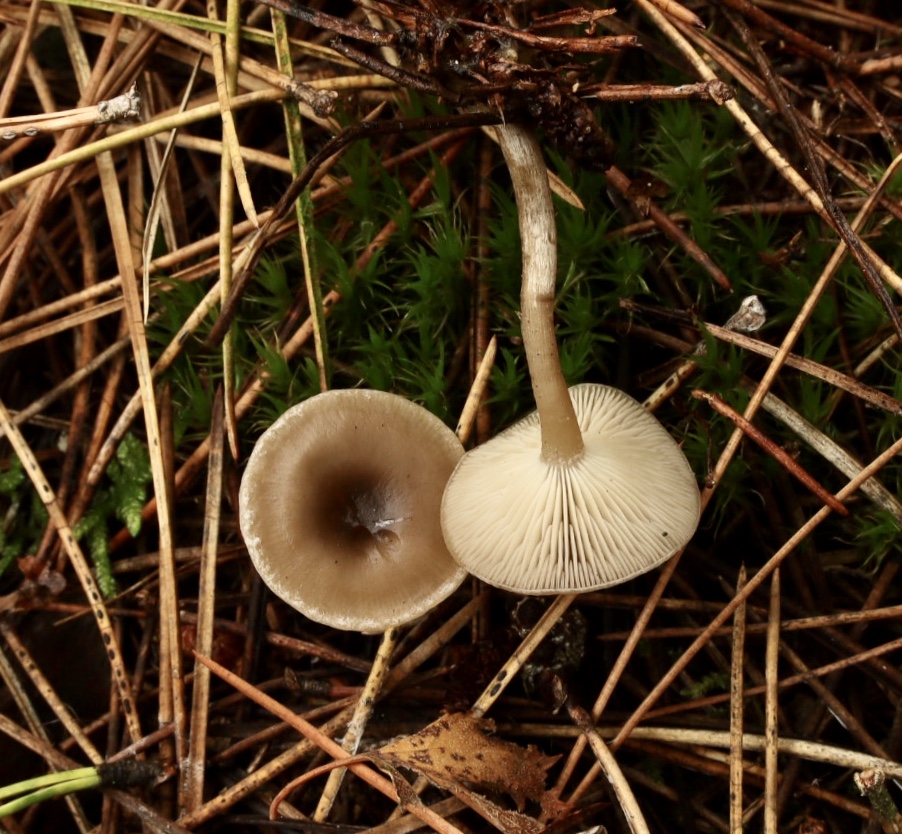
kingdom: Fungi
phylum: Basidiomycota
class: Agaricomycetes
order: Agaricales
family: Tricholomataceae
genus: Clitocybe
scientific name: Clitocybe
